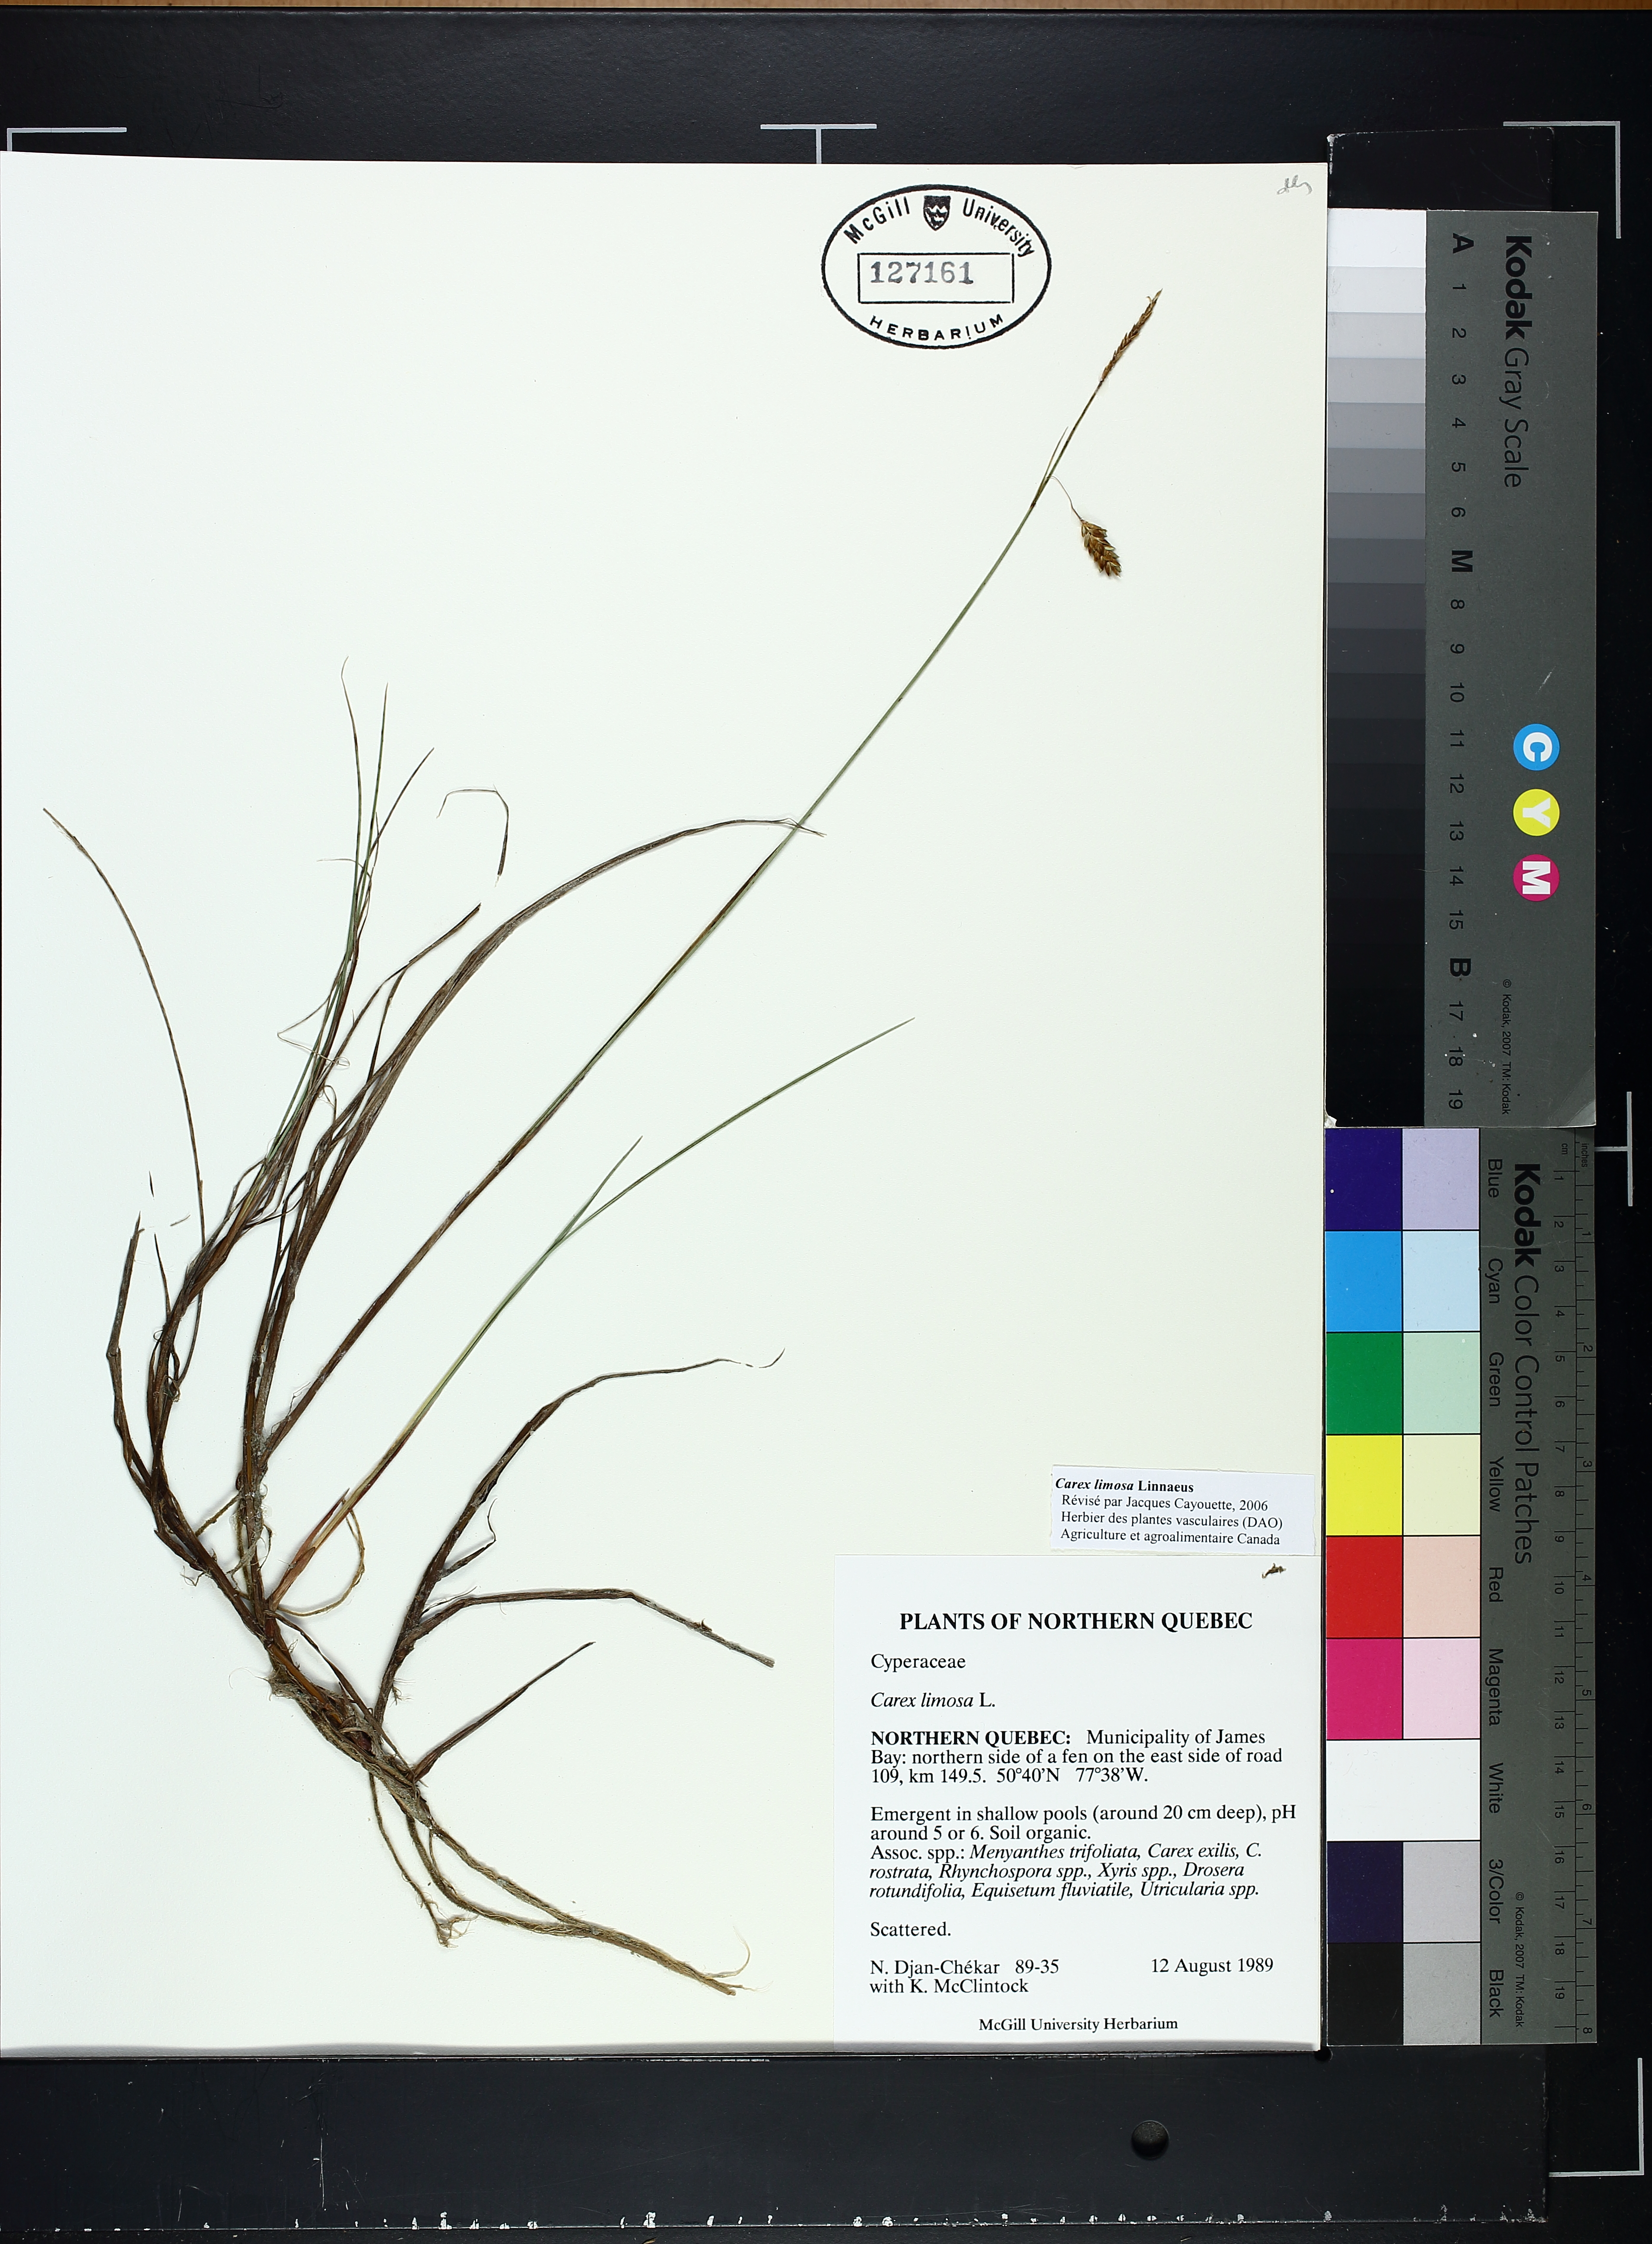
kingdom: Plantae
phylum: Tracheophyta
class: Liliopsida
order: Poales
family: Cyperaceae
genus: Carex
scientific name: Carex limosa
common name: Bog sedge
